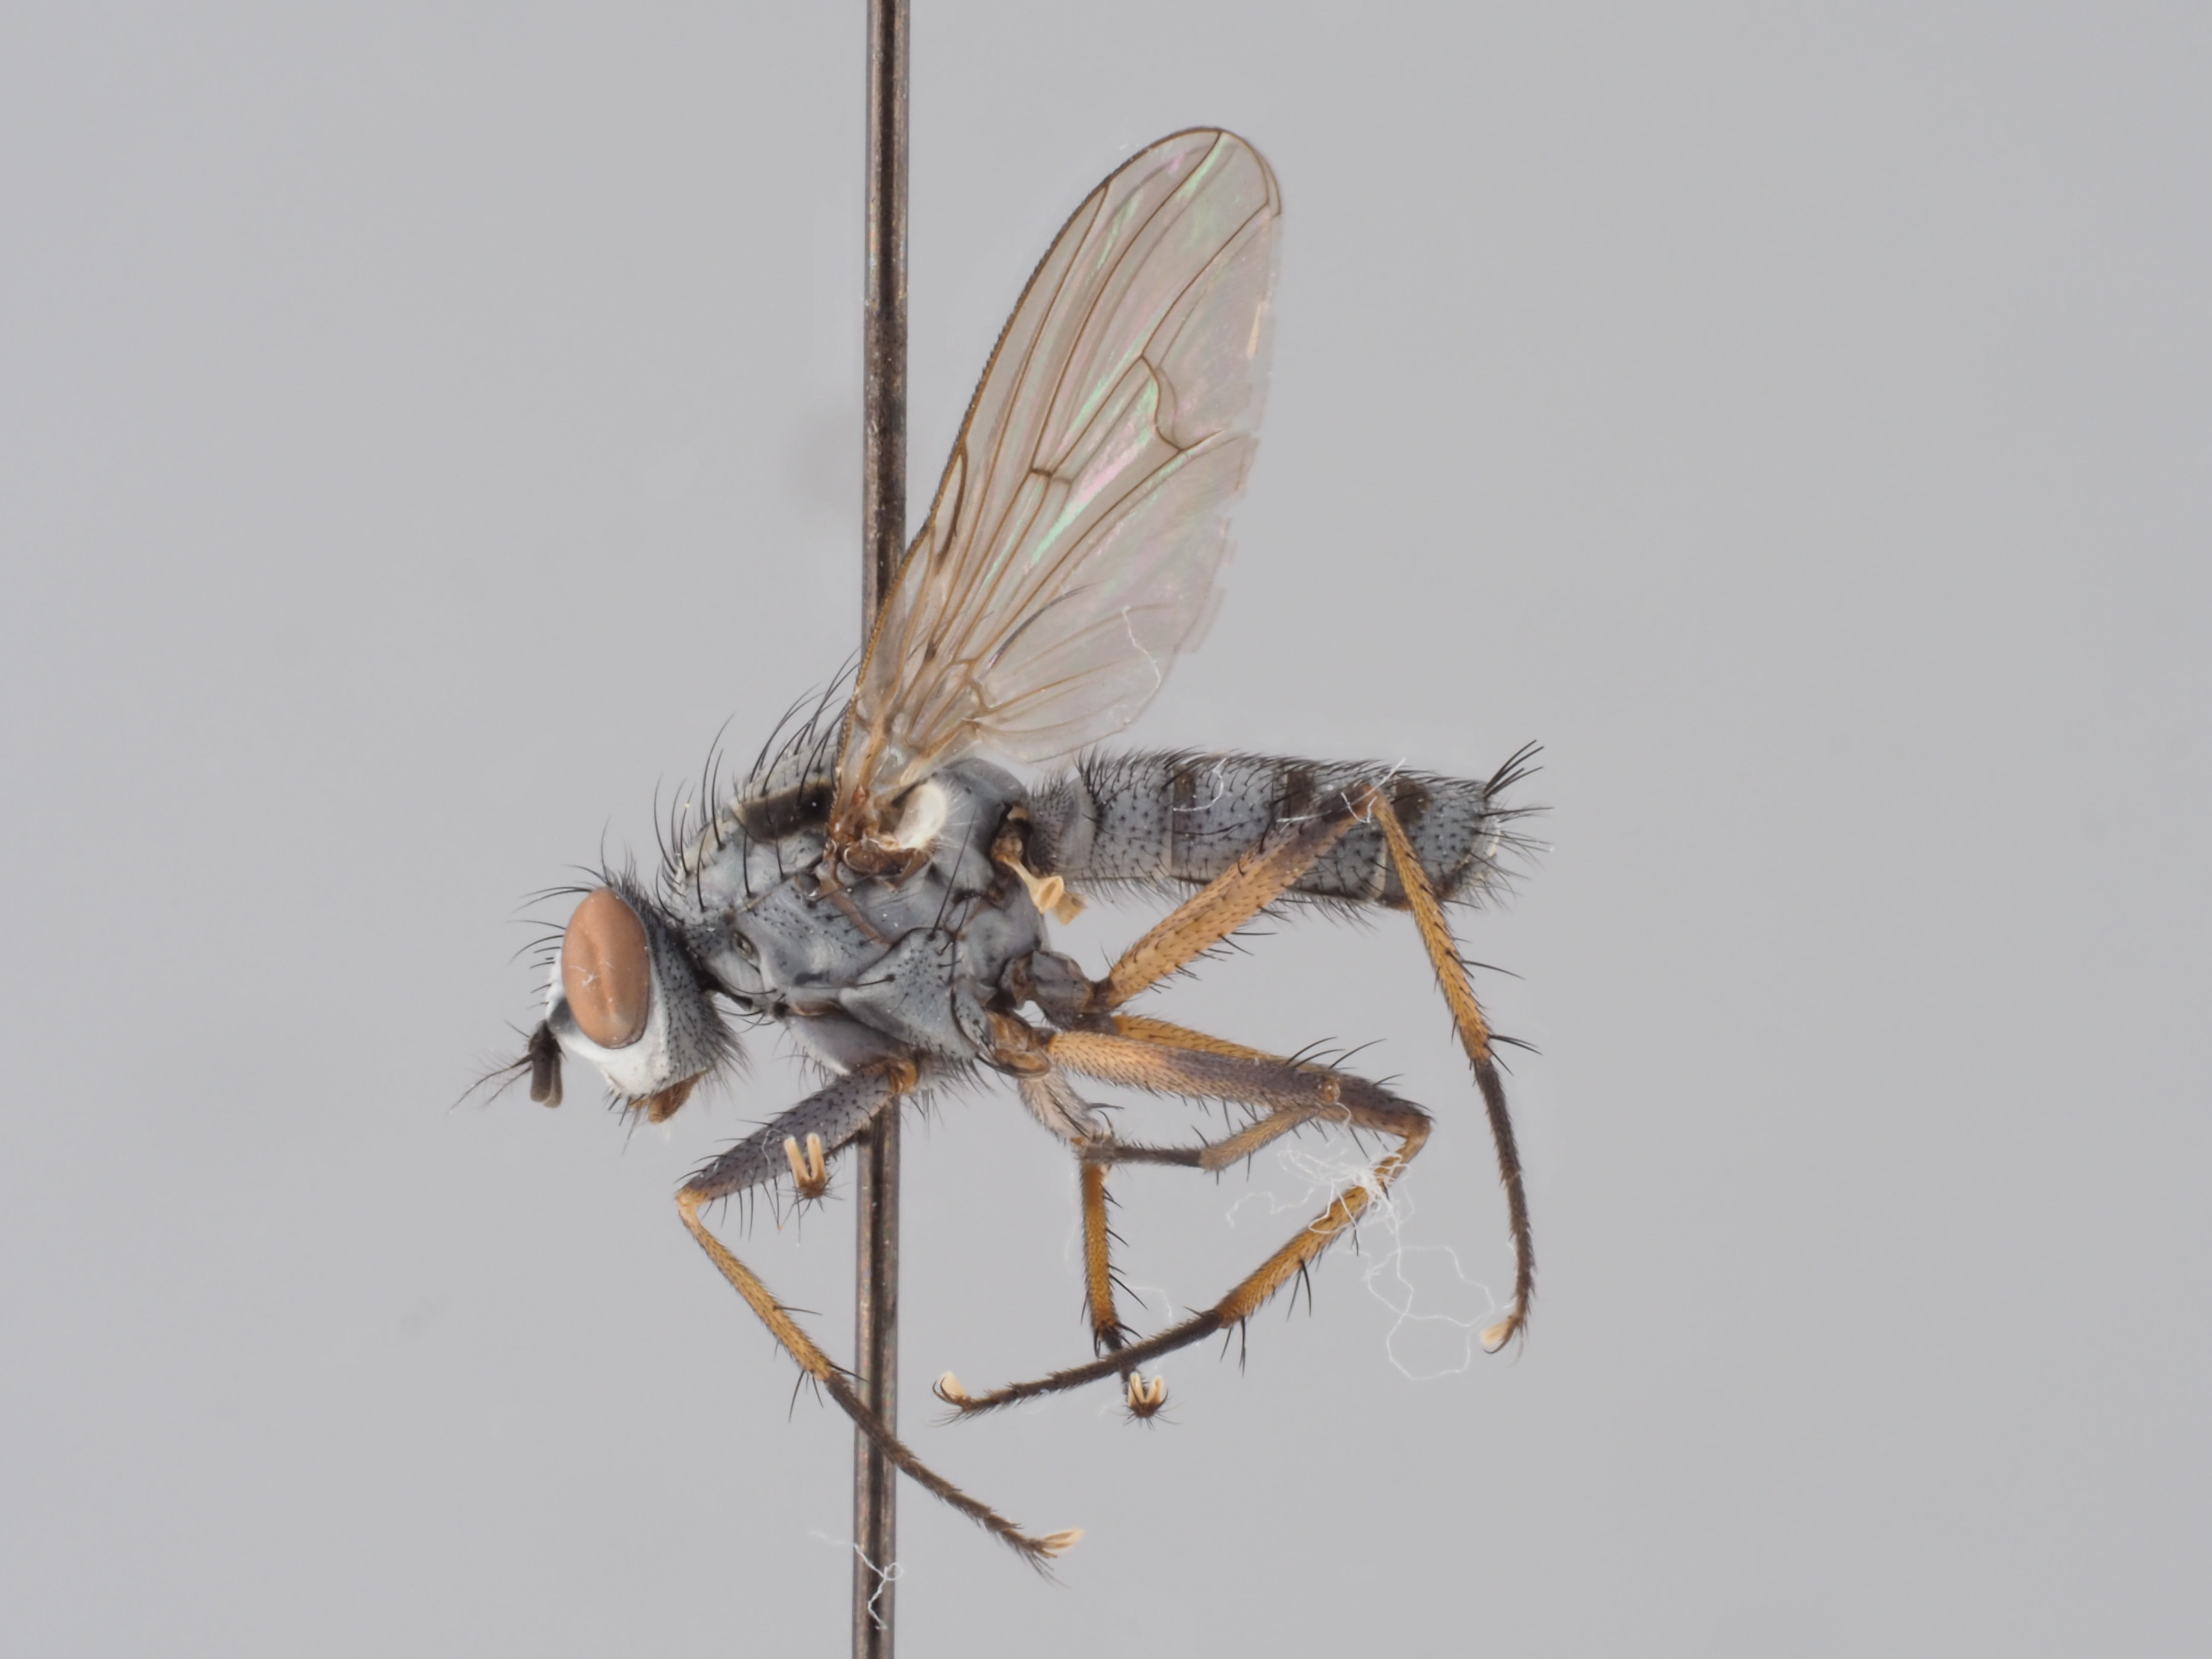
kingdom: Animalia
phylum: Arthropoda
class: Insecta
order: Diptera
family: Anthomyiidae
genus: Eustalomyia
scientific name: Eustalomyia vittipes
